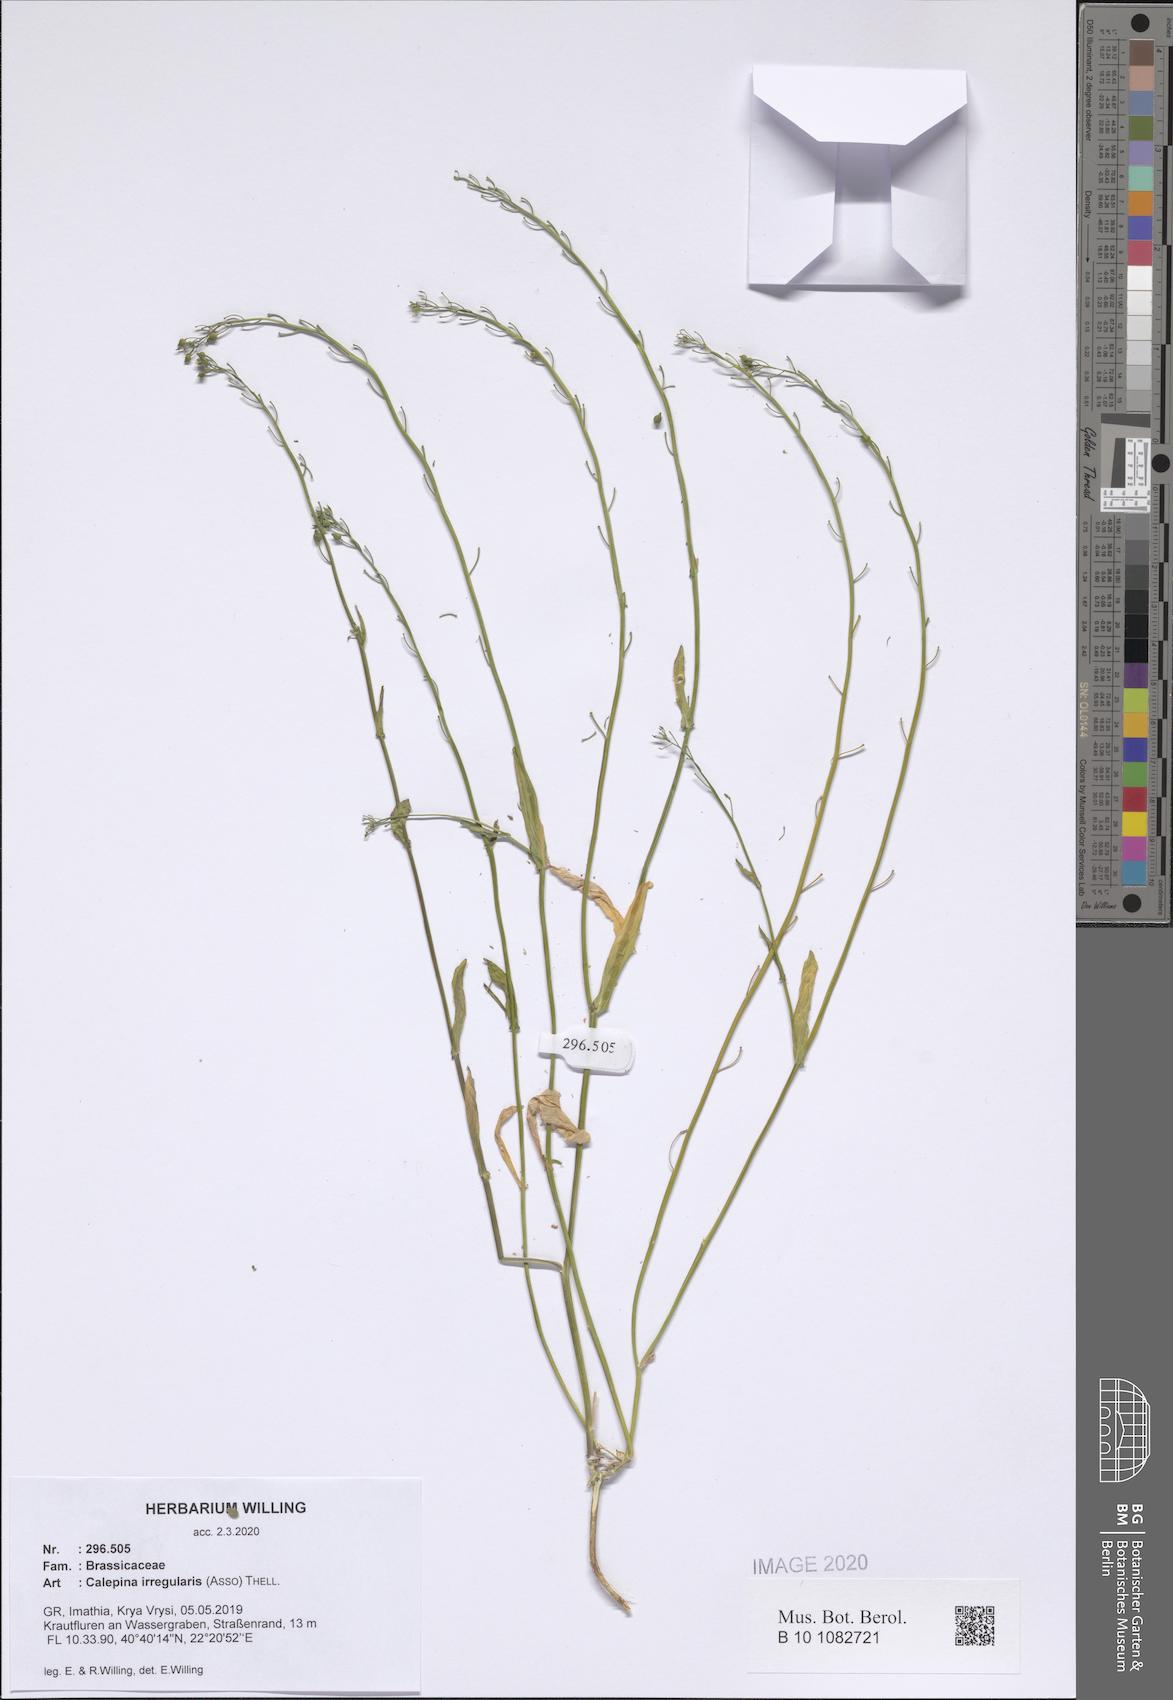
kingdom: Plantae
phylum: Tracheophyta
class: Magnoliopsida
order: Brassicales
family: Brassicaceae
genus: Calepina
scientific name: Calepina irregularis
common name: White ballmustard
